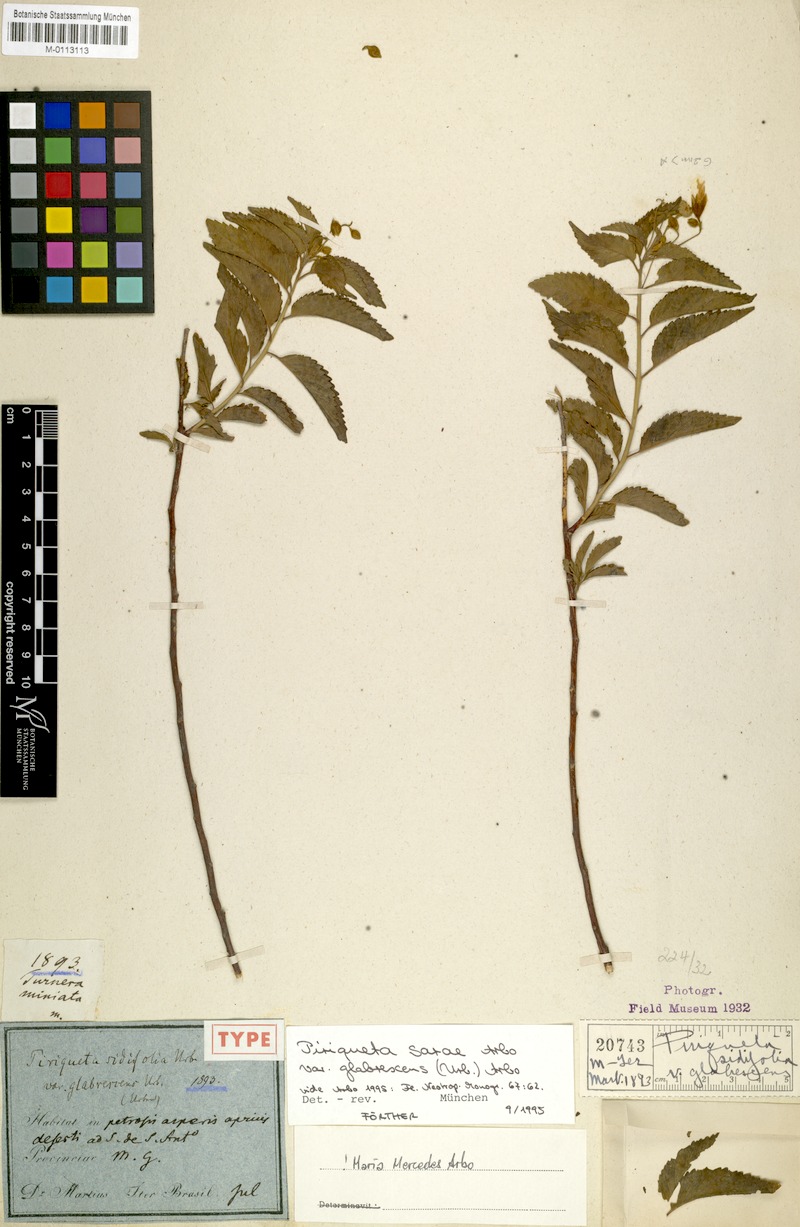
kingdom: Plantae
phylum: Tracheophyta
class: Magnoliopsida
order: Malpighiales
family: Turneraceae
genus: Piriqueta
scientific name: Piriqueta sarae
